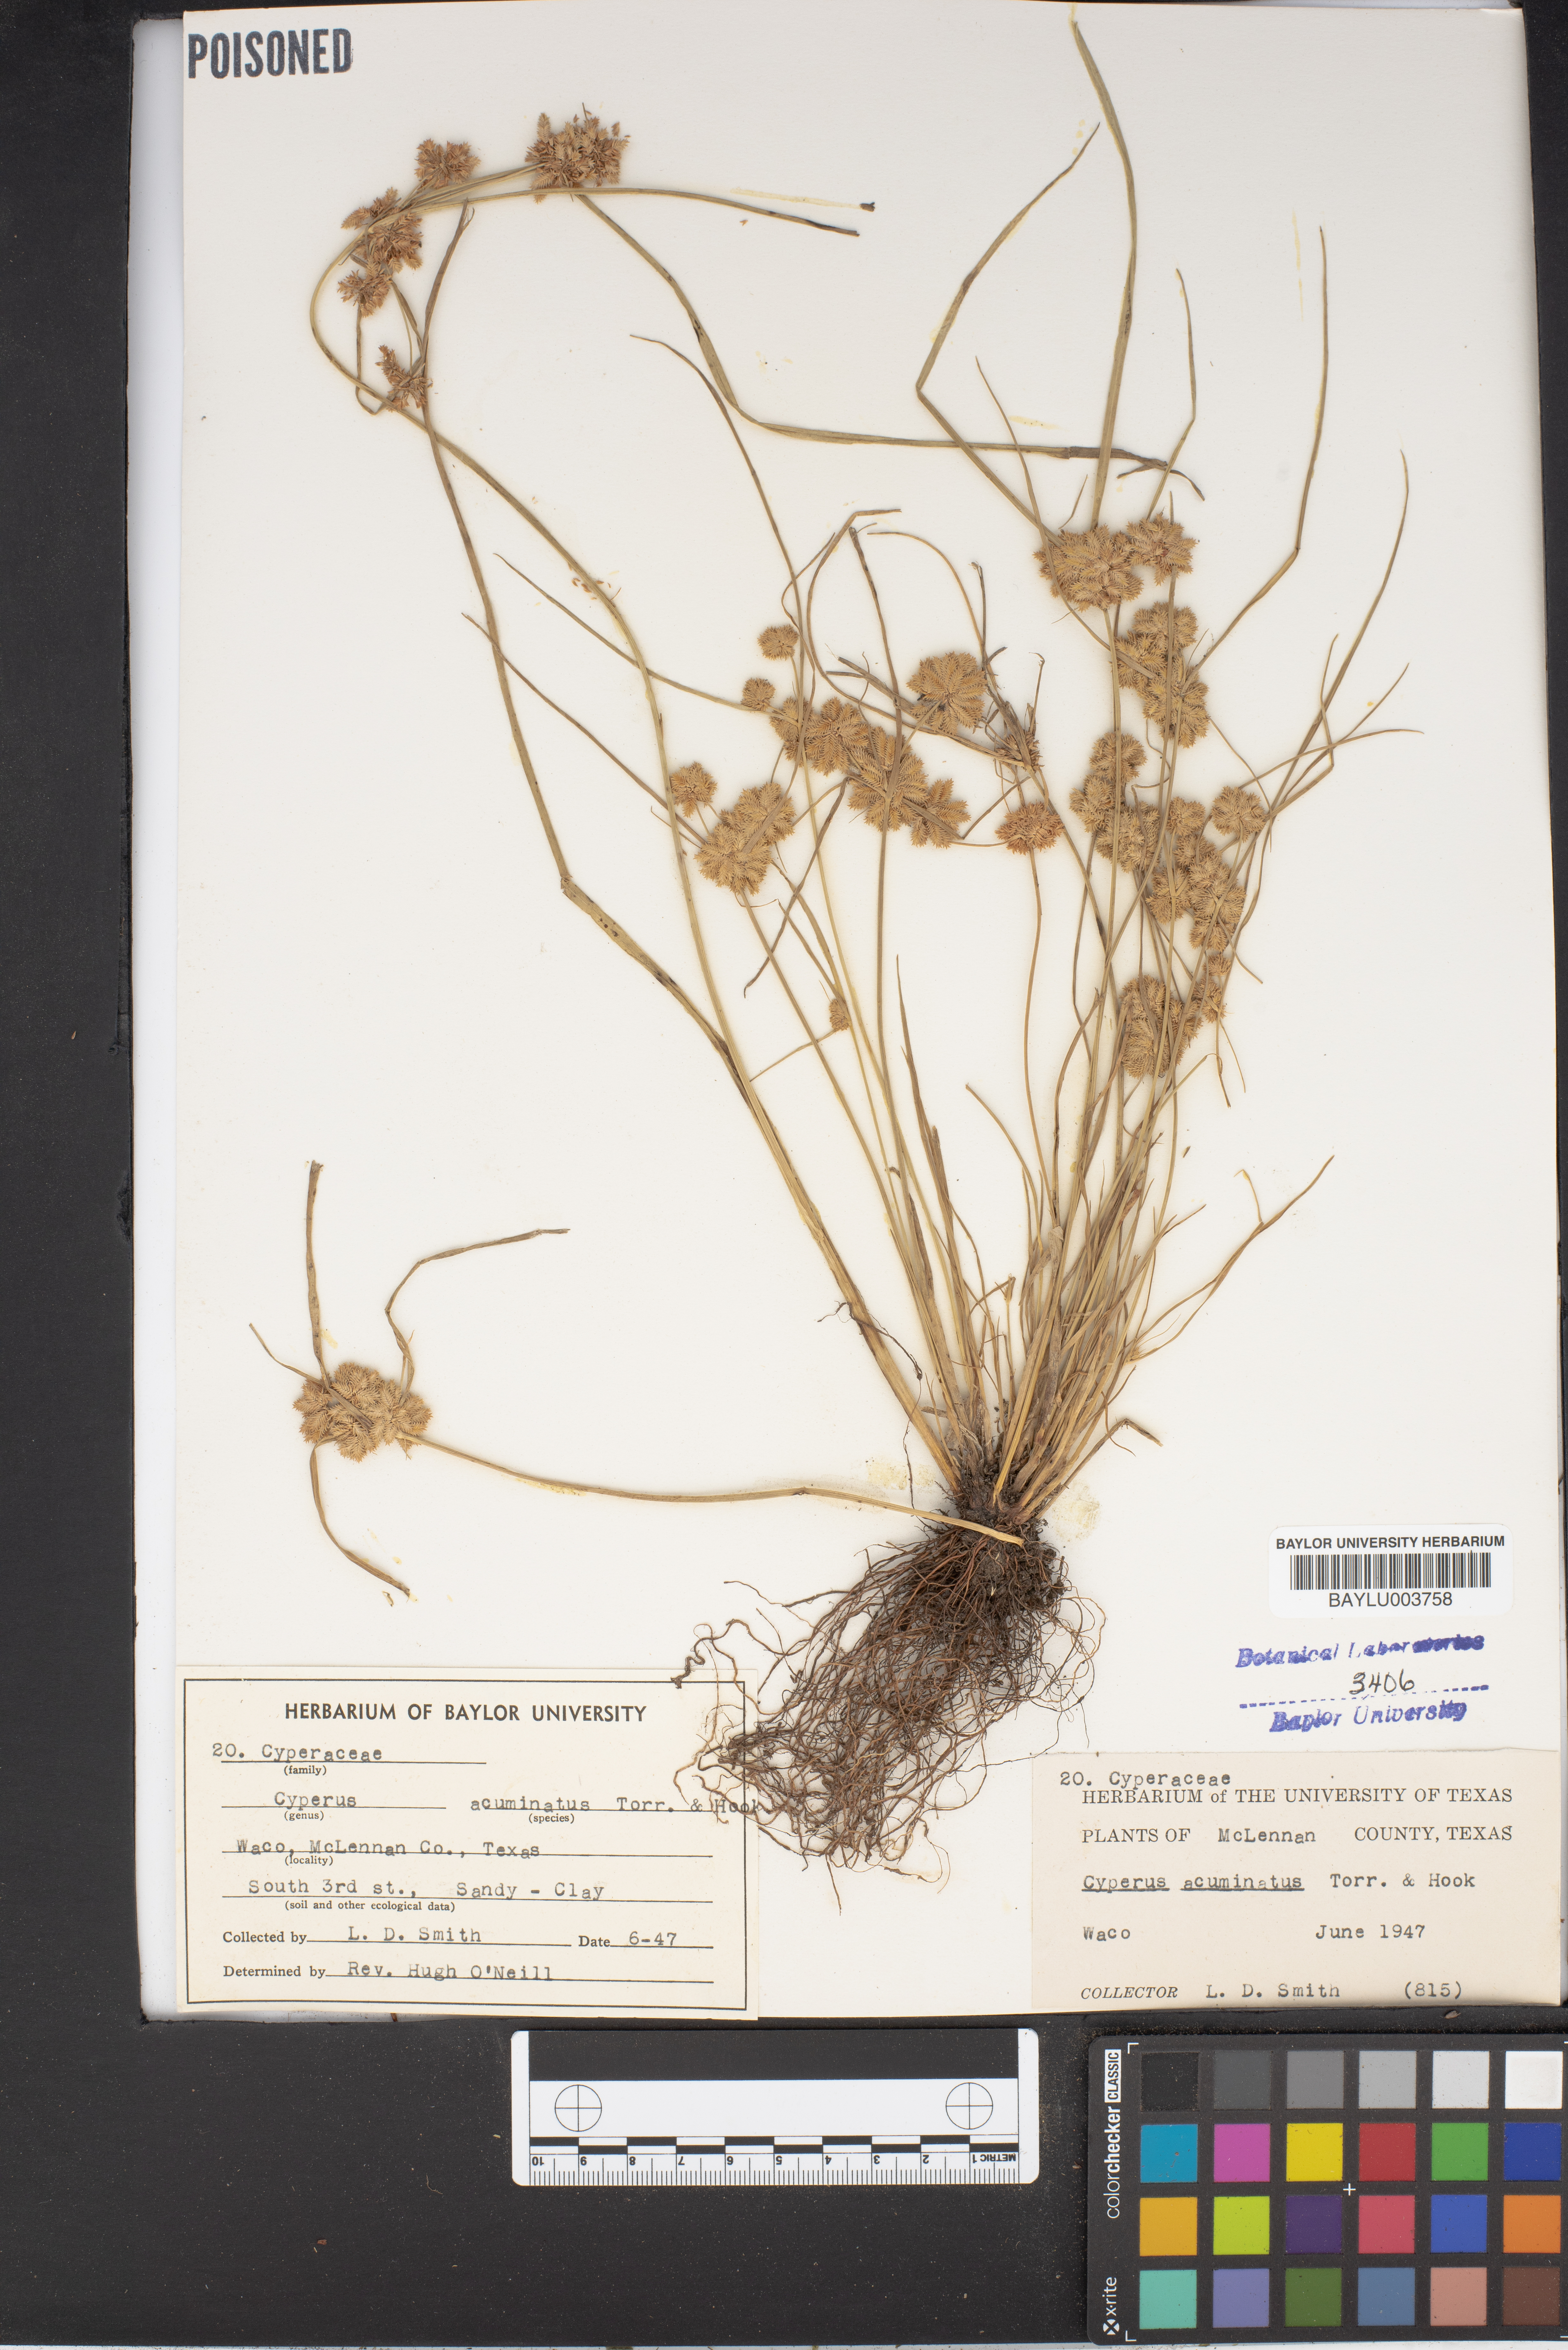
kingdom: Plantae
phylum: Tracheophyta
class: Liliopsida
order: Poales
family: Cyperaceae
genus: Cyperus
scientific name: Cyperus acuminatus
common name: Short-pointed cyperus
